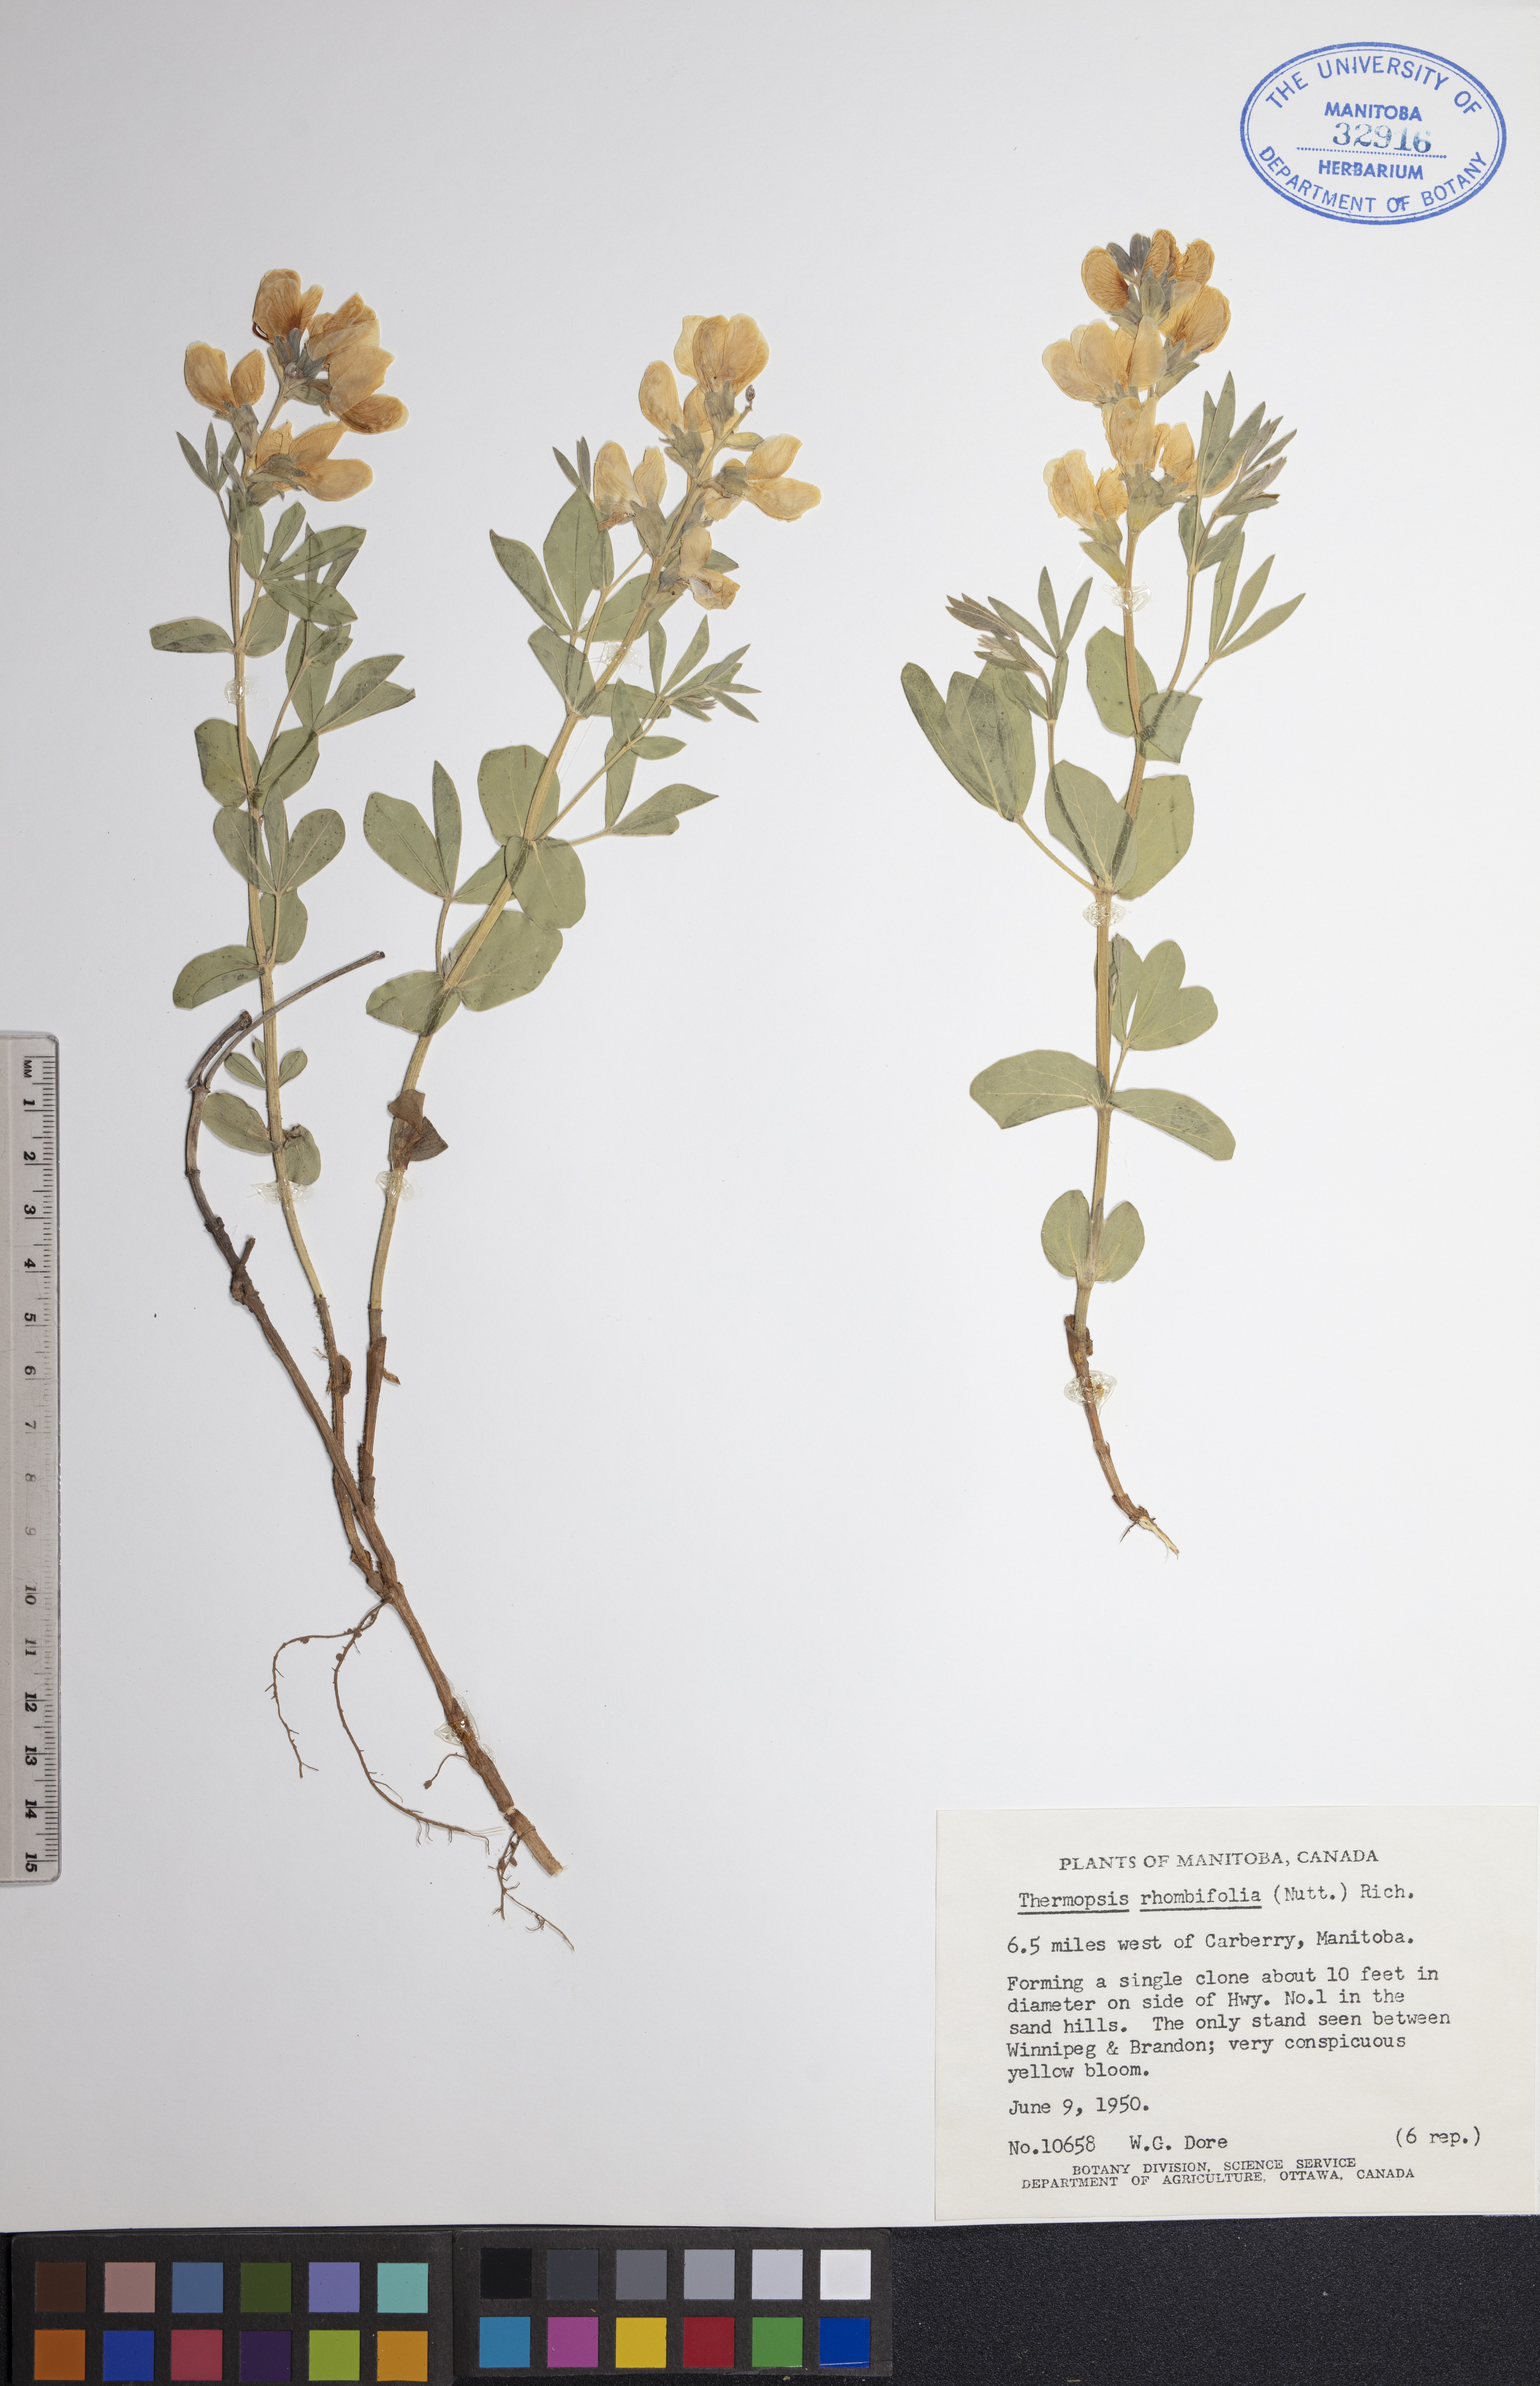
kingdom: Plantae
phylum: Tracheophyta
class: Magnoliopsida
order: Fabales
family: Fabaceae
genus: Thermopsis
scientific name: Thermopsis rhombifolia
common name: Circle-pod-pea
